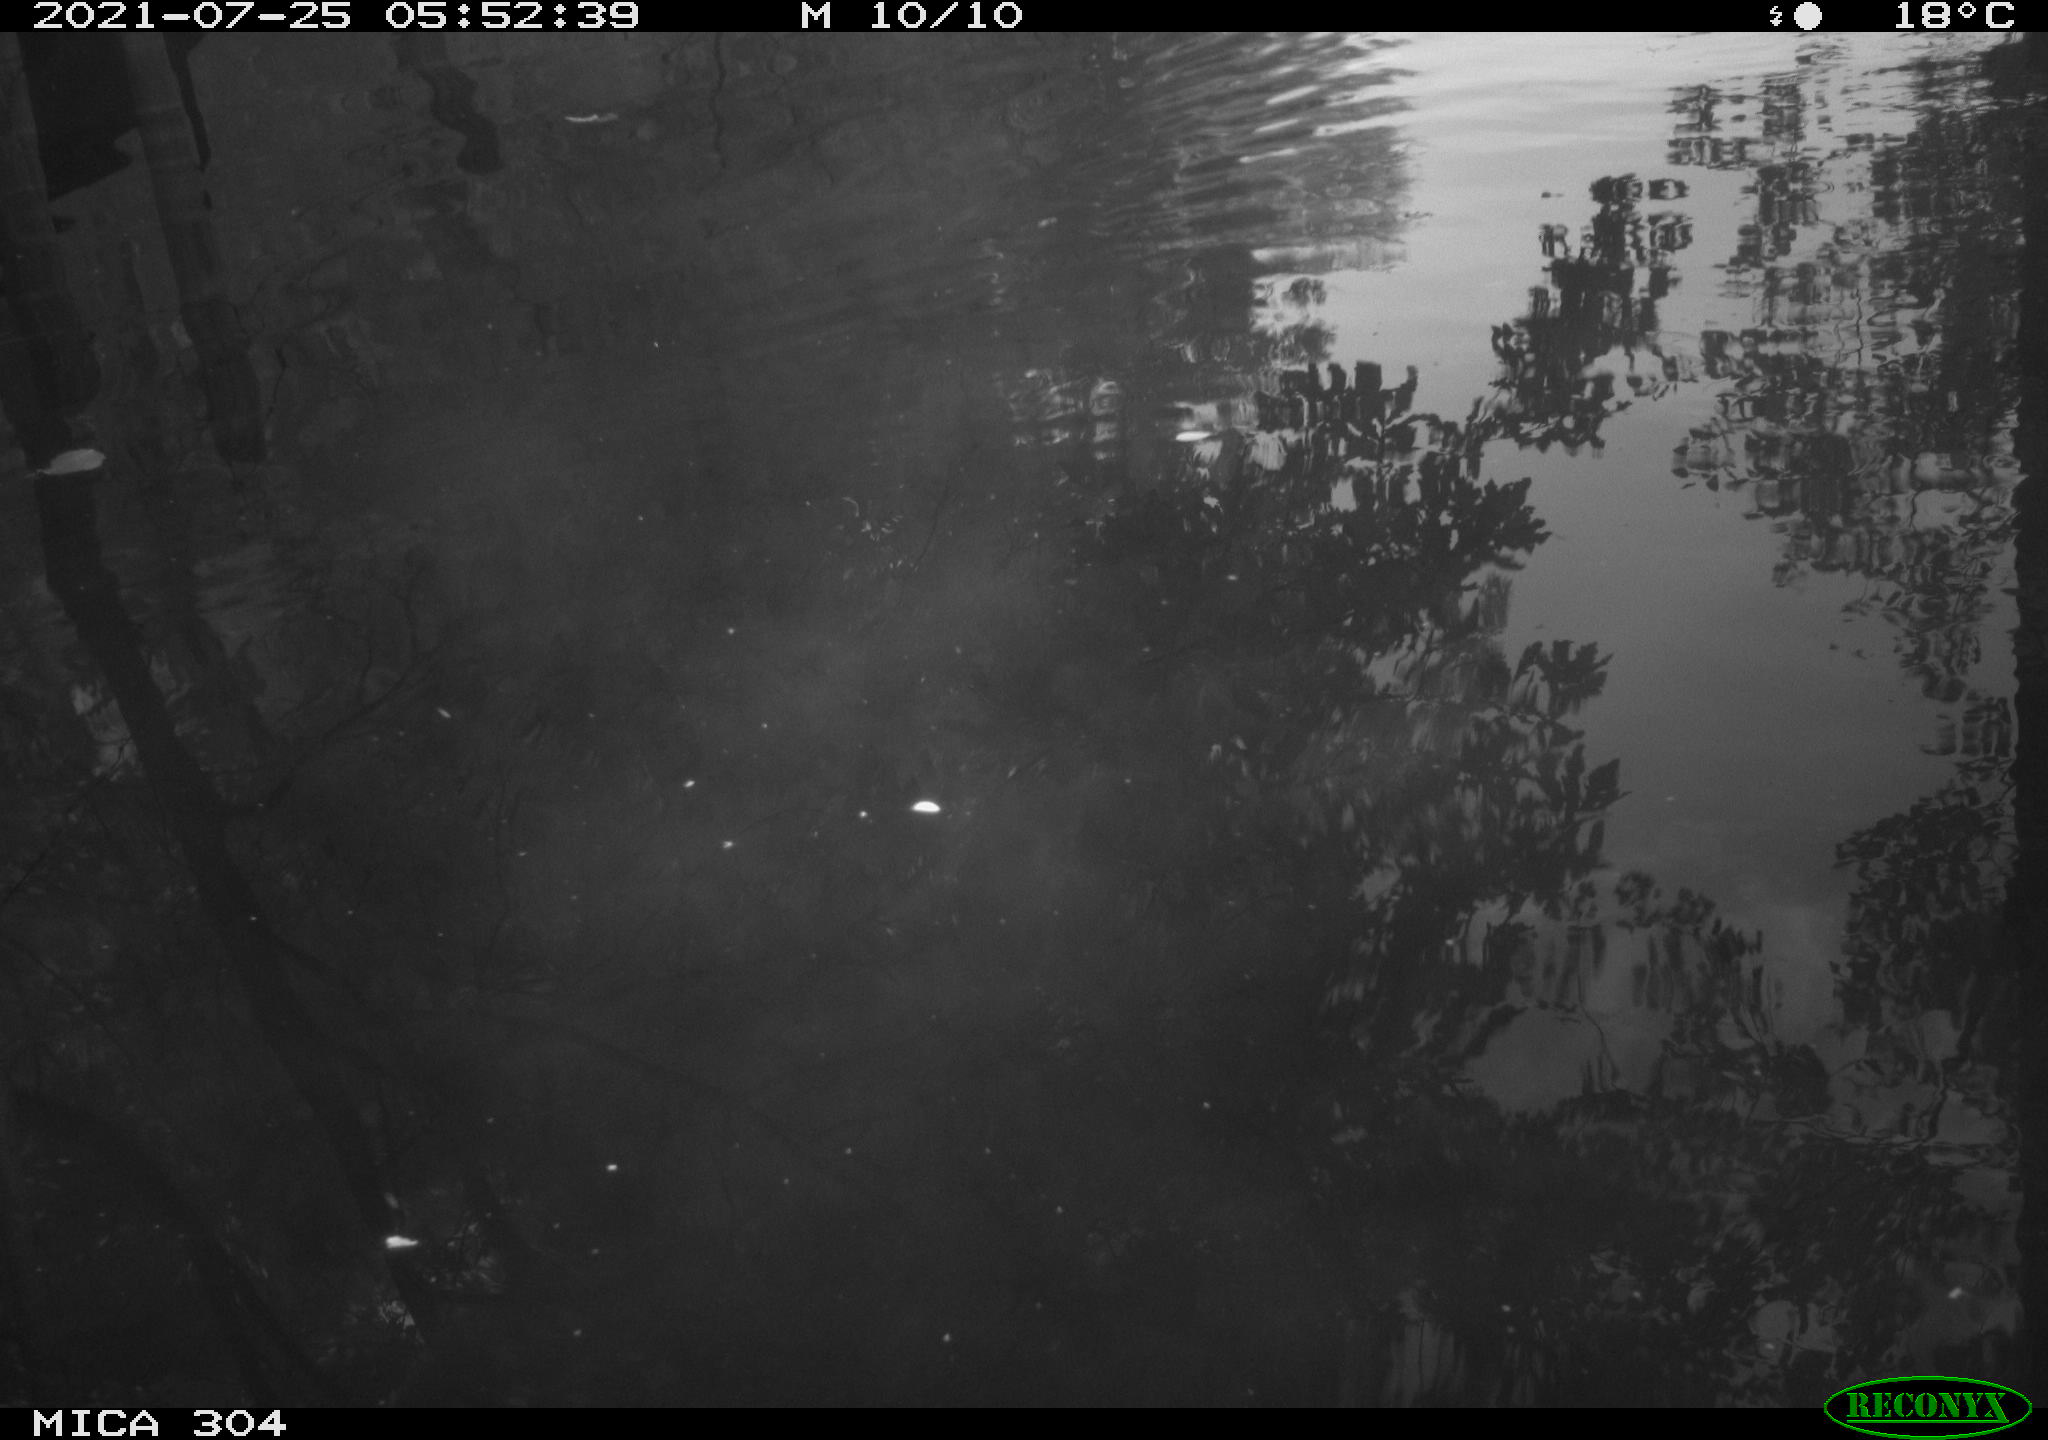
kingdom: Animalia
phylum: Chordata
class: Aves
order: Anseriformes
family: Anatidae
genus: Anas
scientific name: Anas platyrhynchos
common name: Mallard
